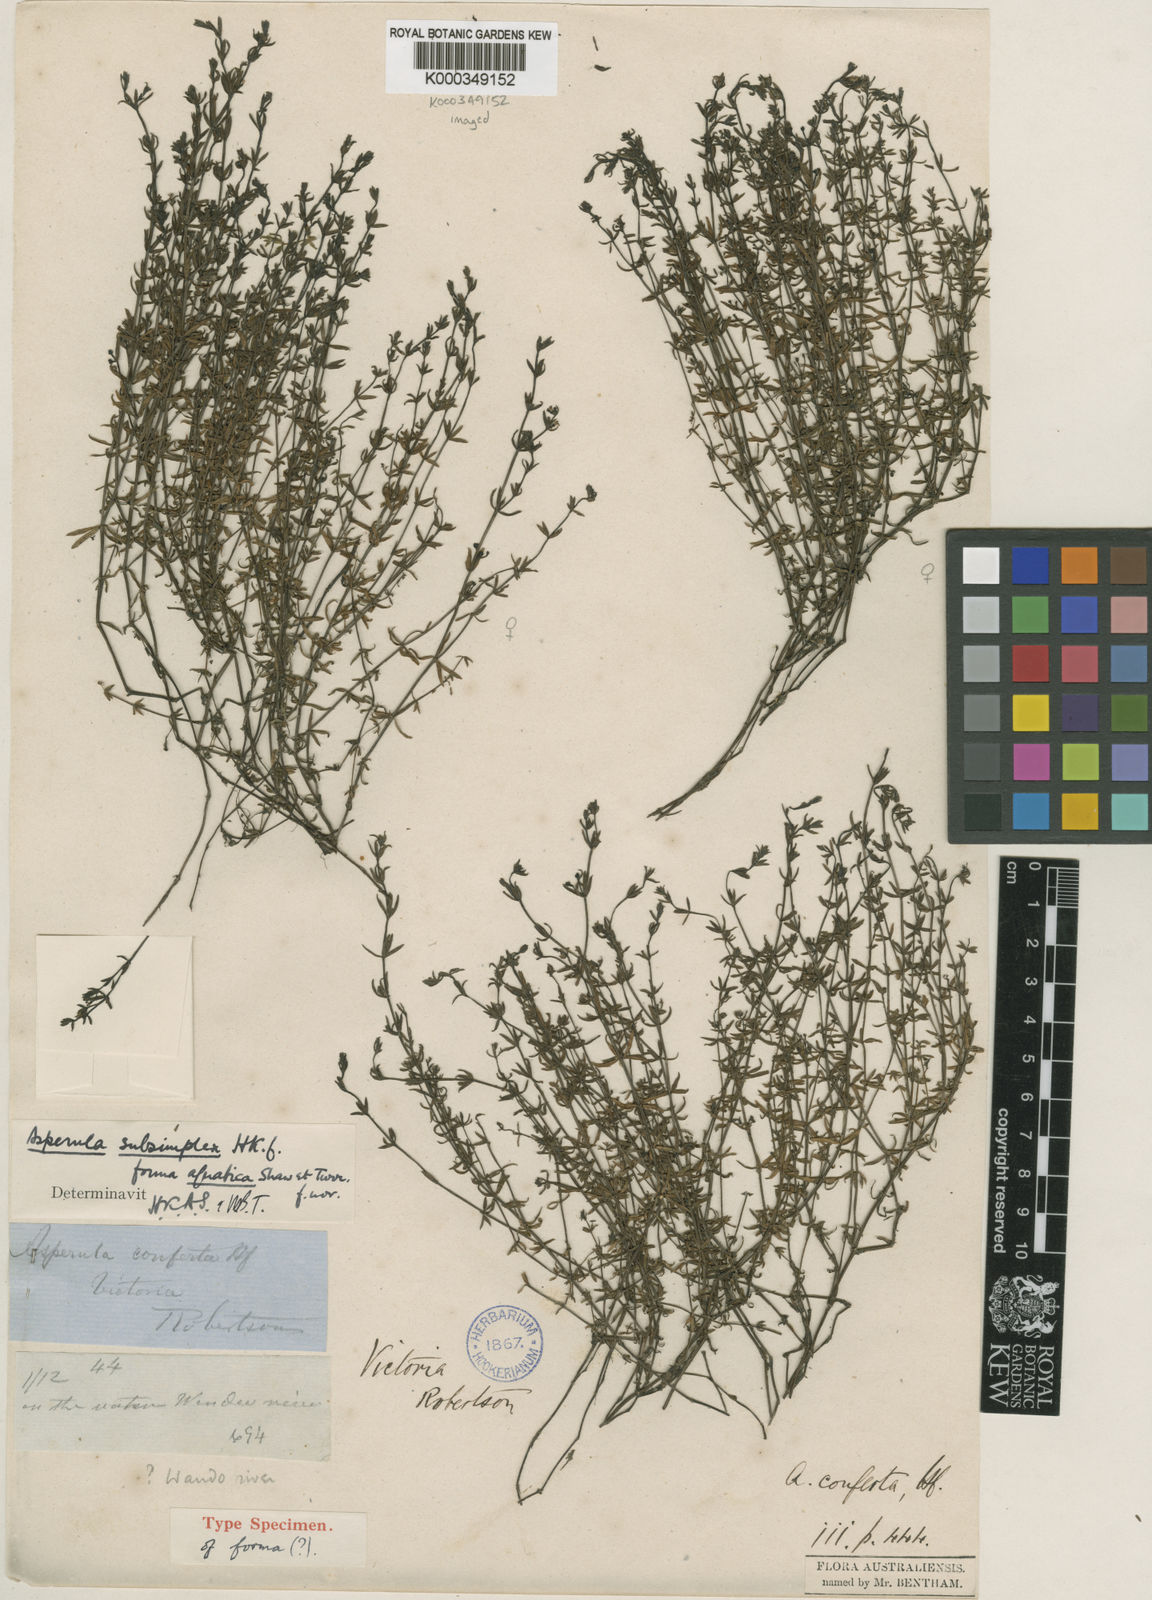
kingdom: Plantae
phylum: Tracheophyta
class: Magnoliopsida
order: Gentianales
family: Rubiaceae
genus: Asperula
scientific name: Asperula subsimplex
